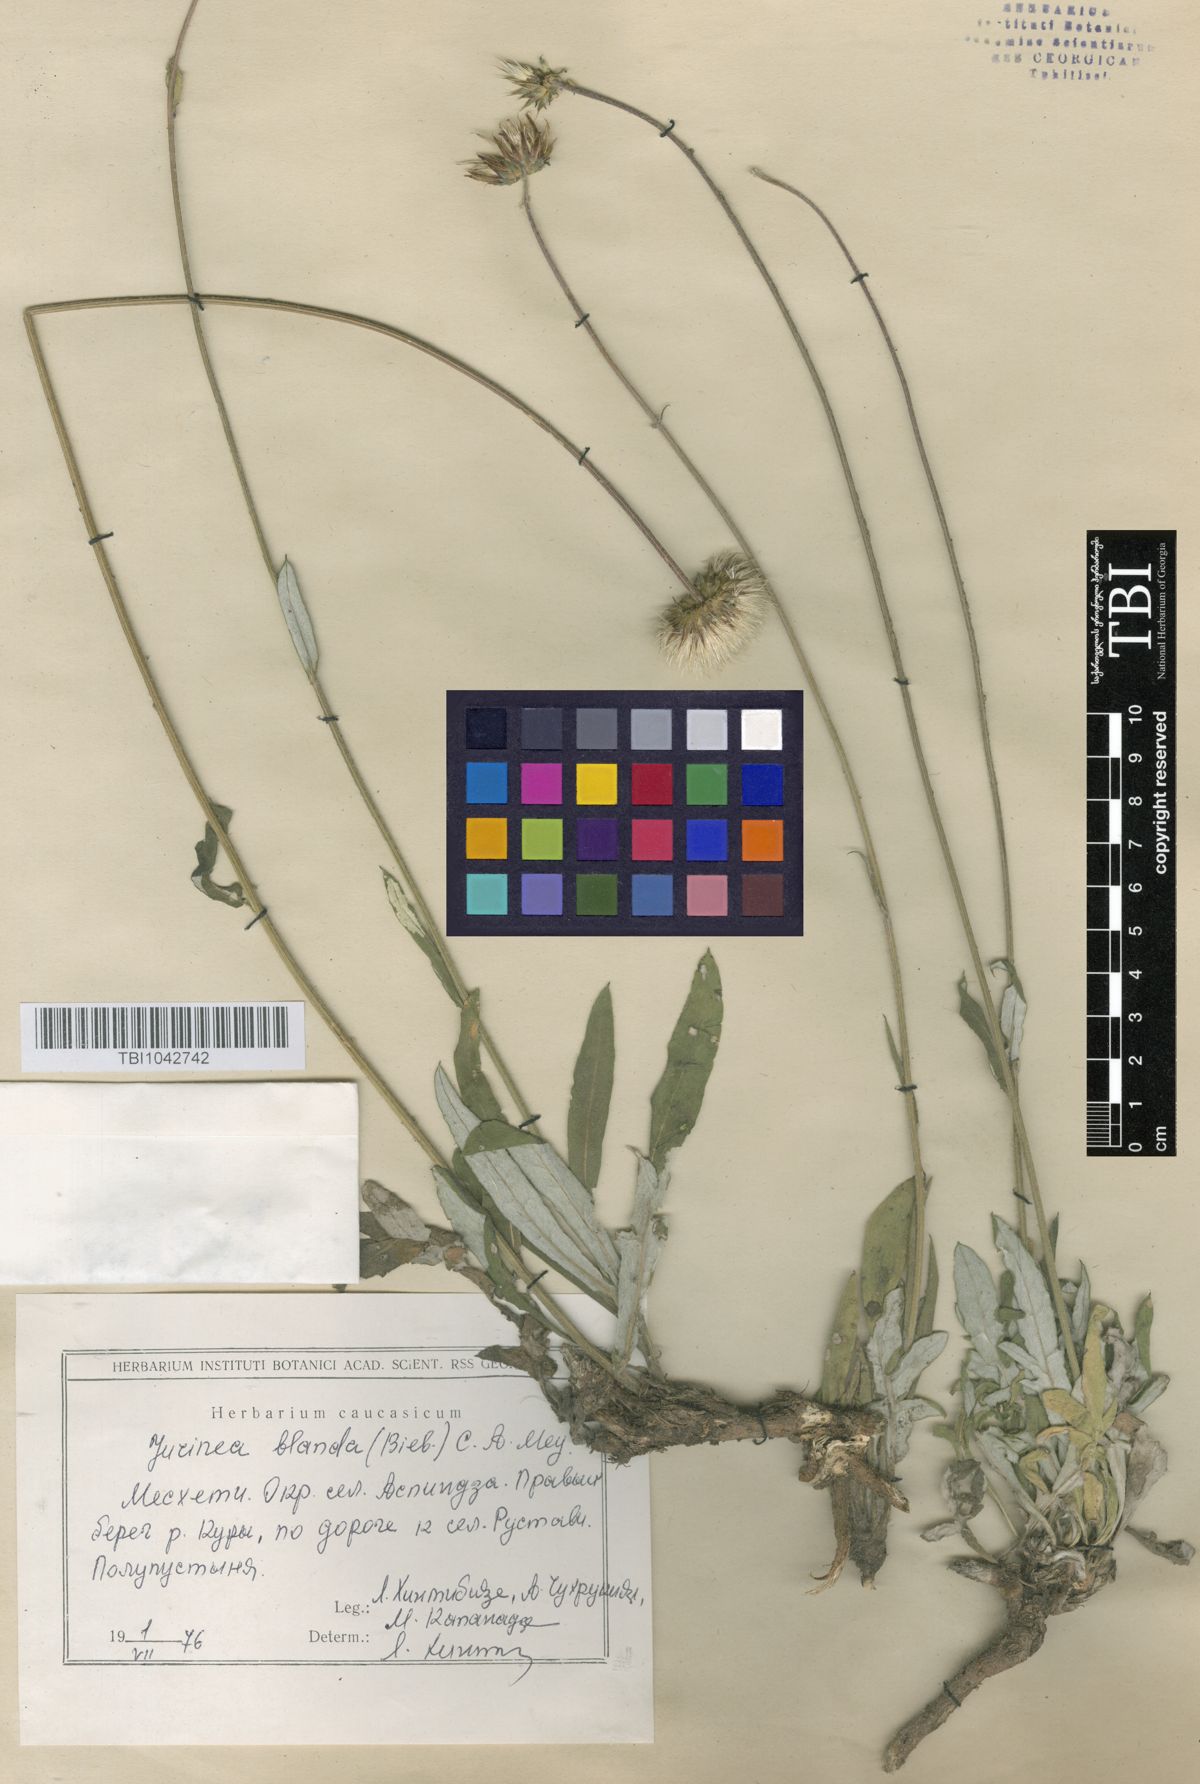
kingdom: Plantae
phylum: Tracheophyta
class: Magnoliopsida
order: Asterales
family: Asteraceae
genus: Jurinea
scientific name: Jurinea blanda
